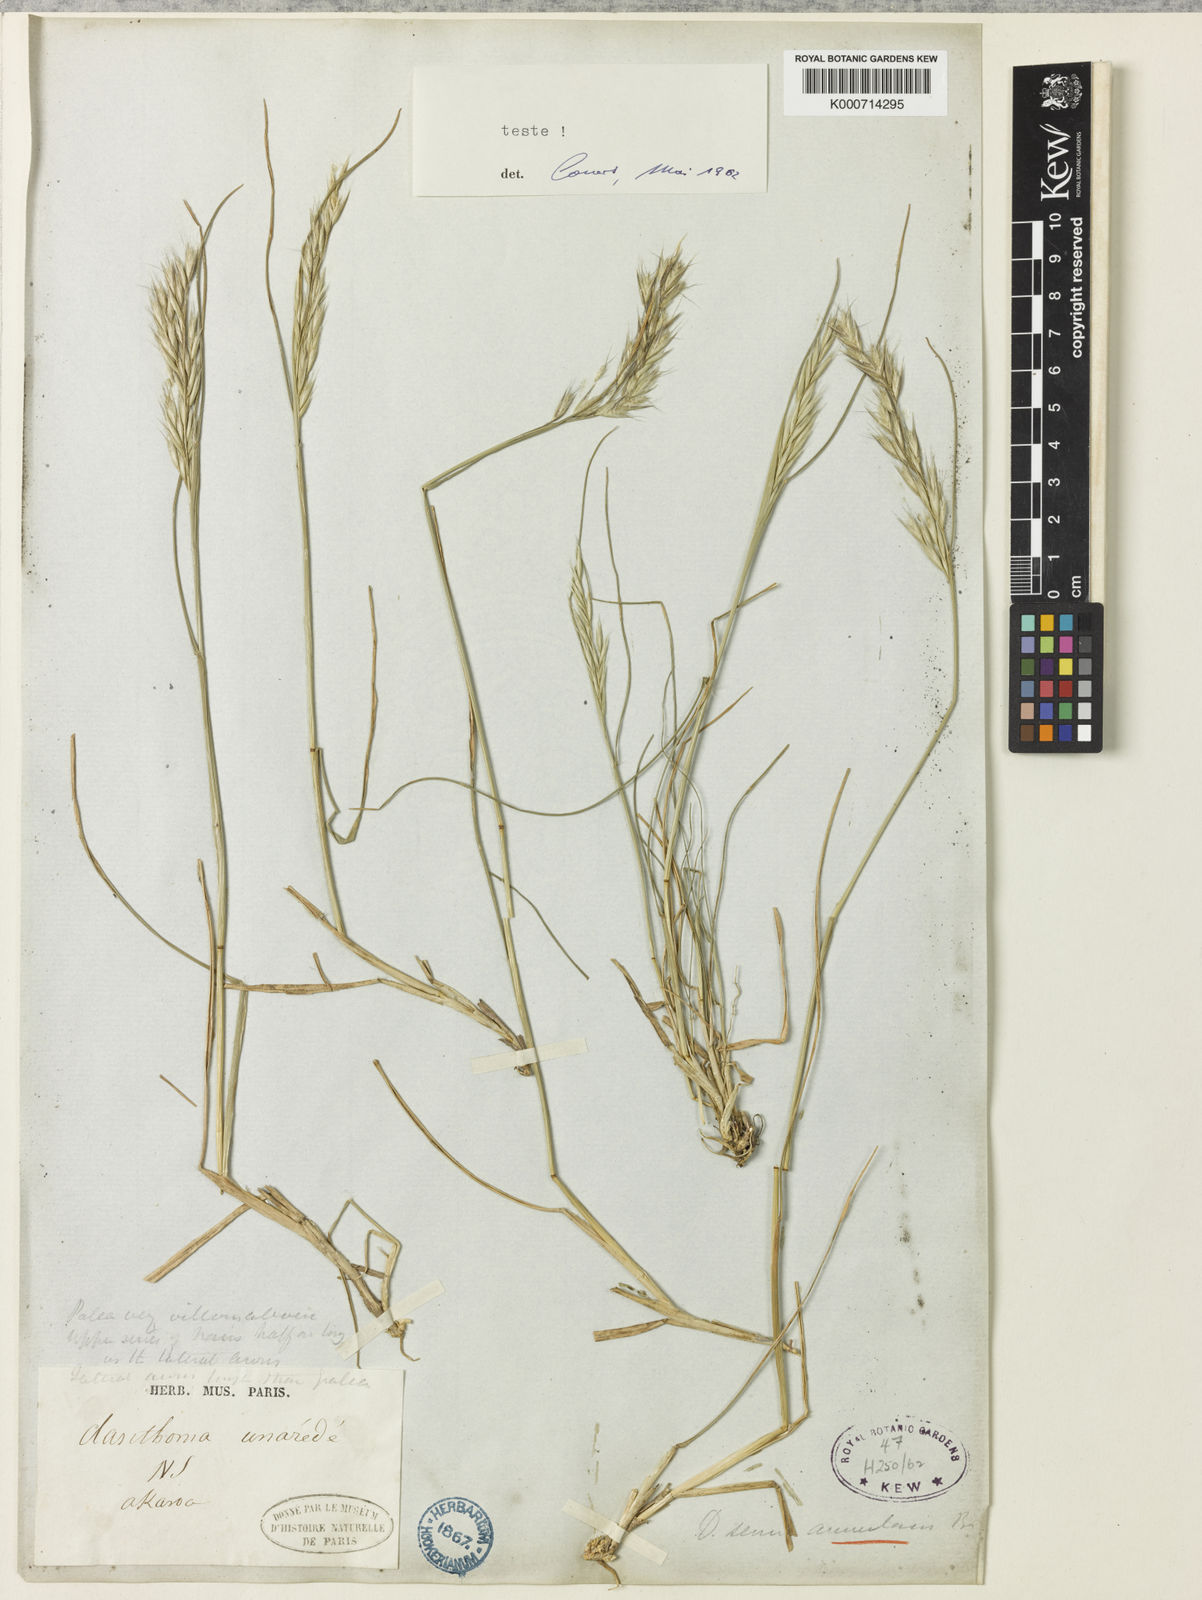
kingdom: Plantae
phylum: Tracheophyta
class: Liliopsida
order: Poales
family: Poaceae
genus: Rytidosperma
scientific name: Rytidosperma unarede
